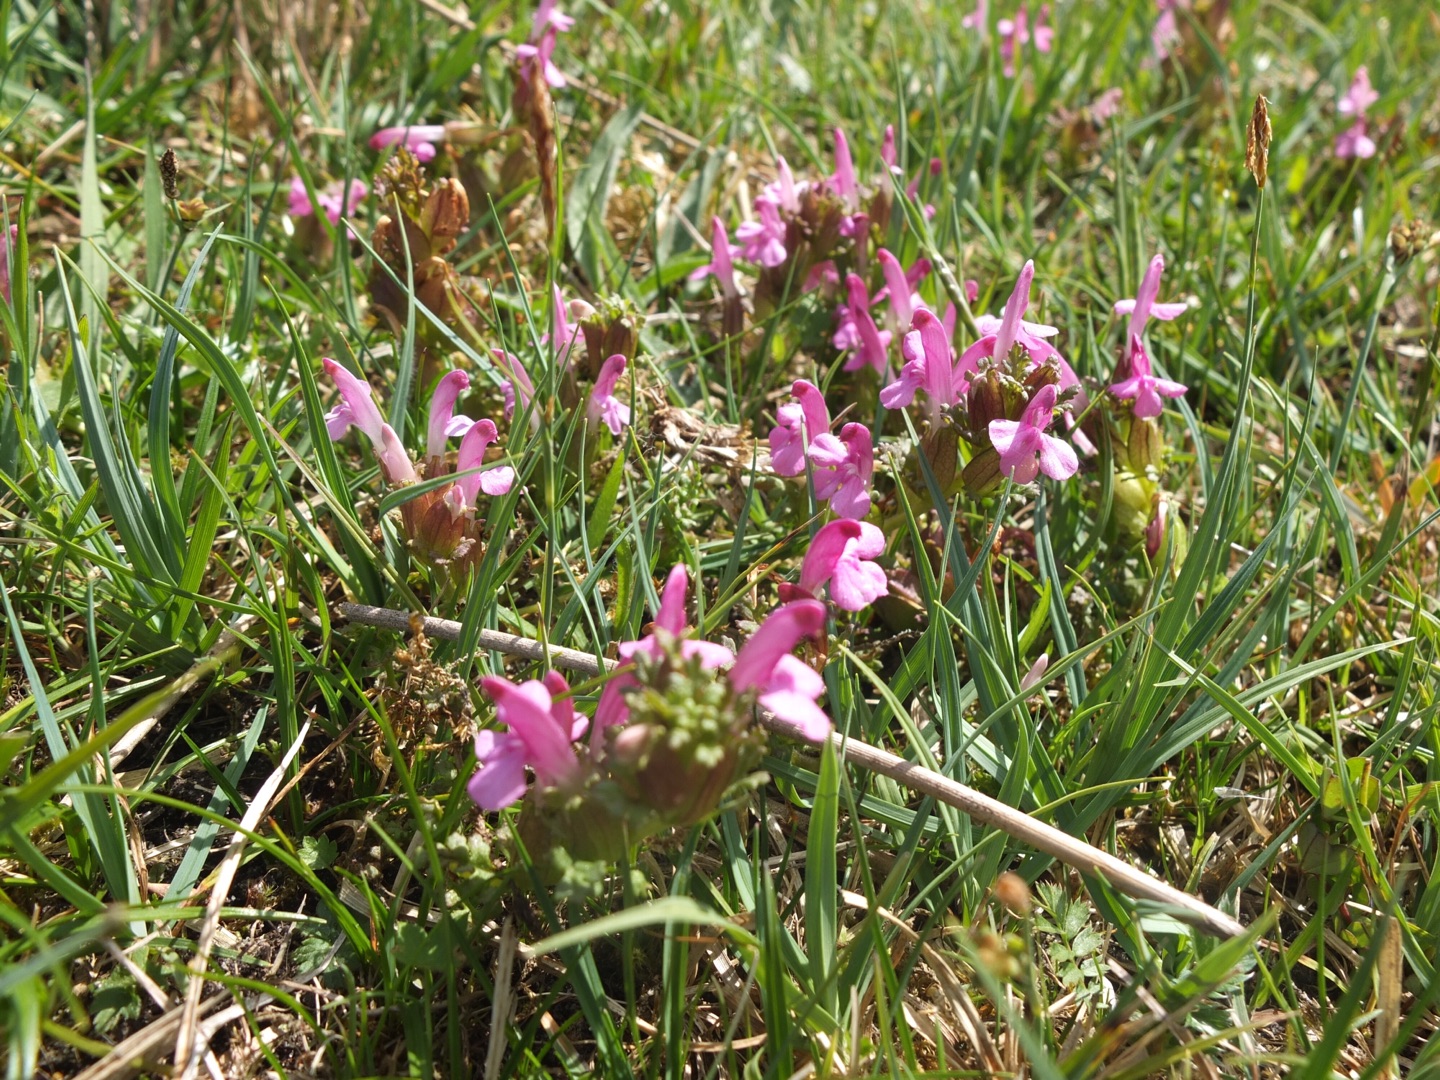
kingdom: Plantae
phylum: Tracheophyta
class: Magnoliopsida
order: Lamiales
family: Orobanchaceae
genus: Pedicularis
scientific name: Pedicularis sylvatica
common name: Mose-troldurt
